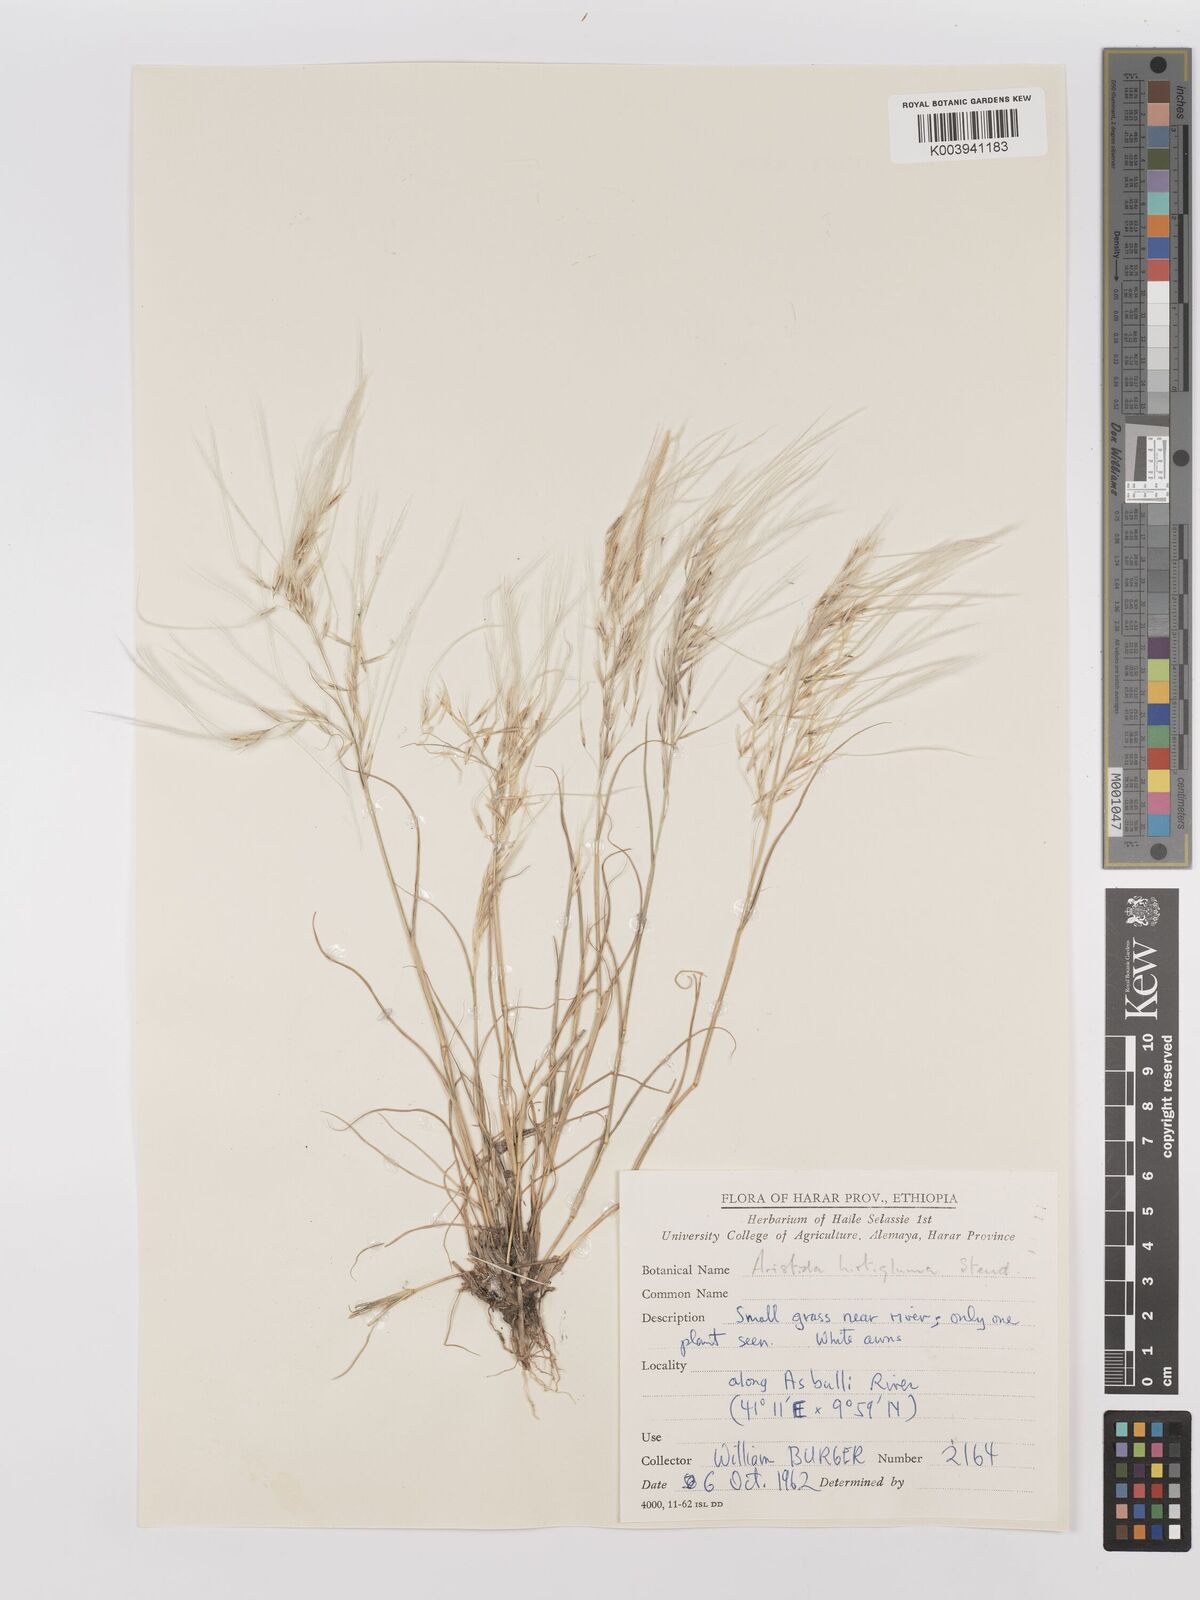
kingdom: Plantae
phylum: Tracheophyta
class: Liliopsida
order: Poales
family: Poaceae
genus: Stipagrostis
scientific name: Stipagrostis hirtigluma
